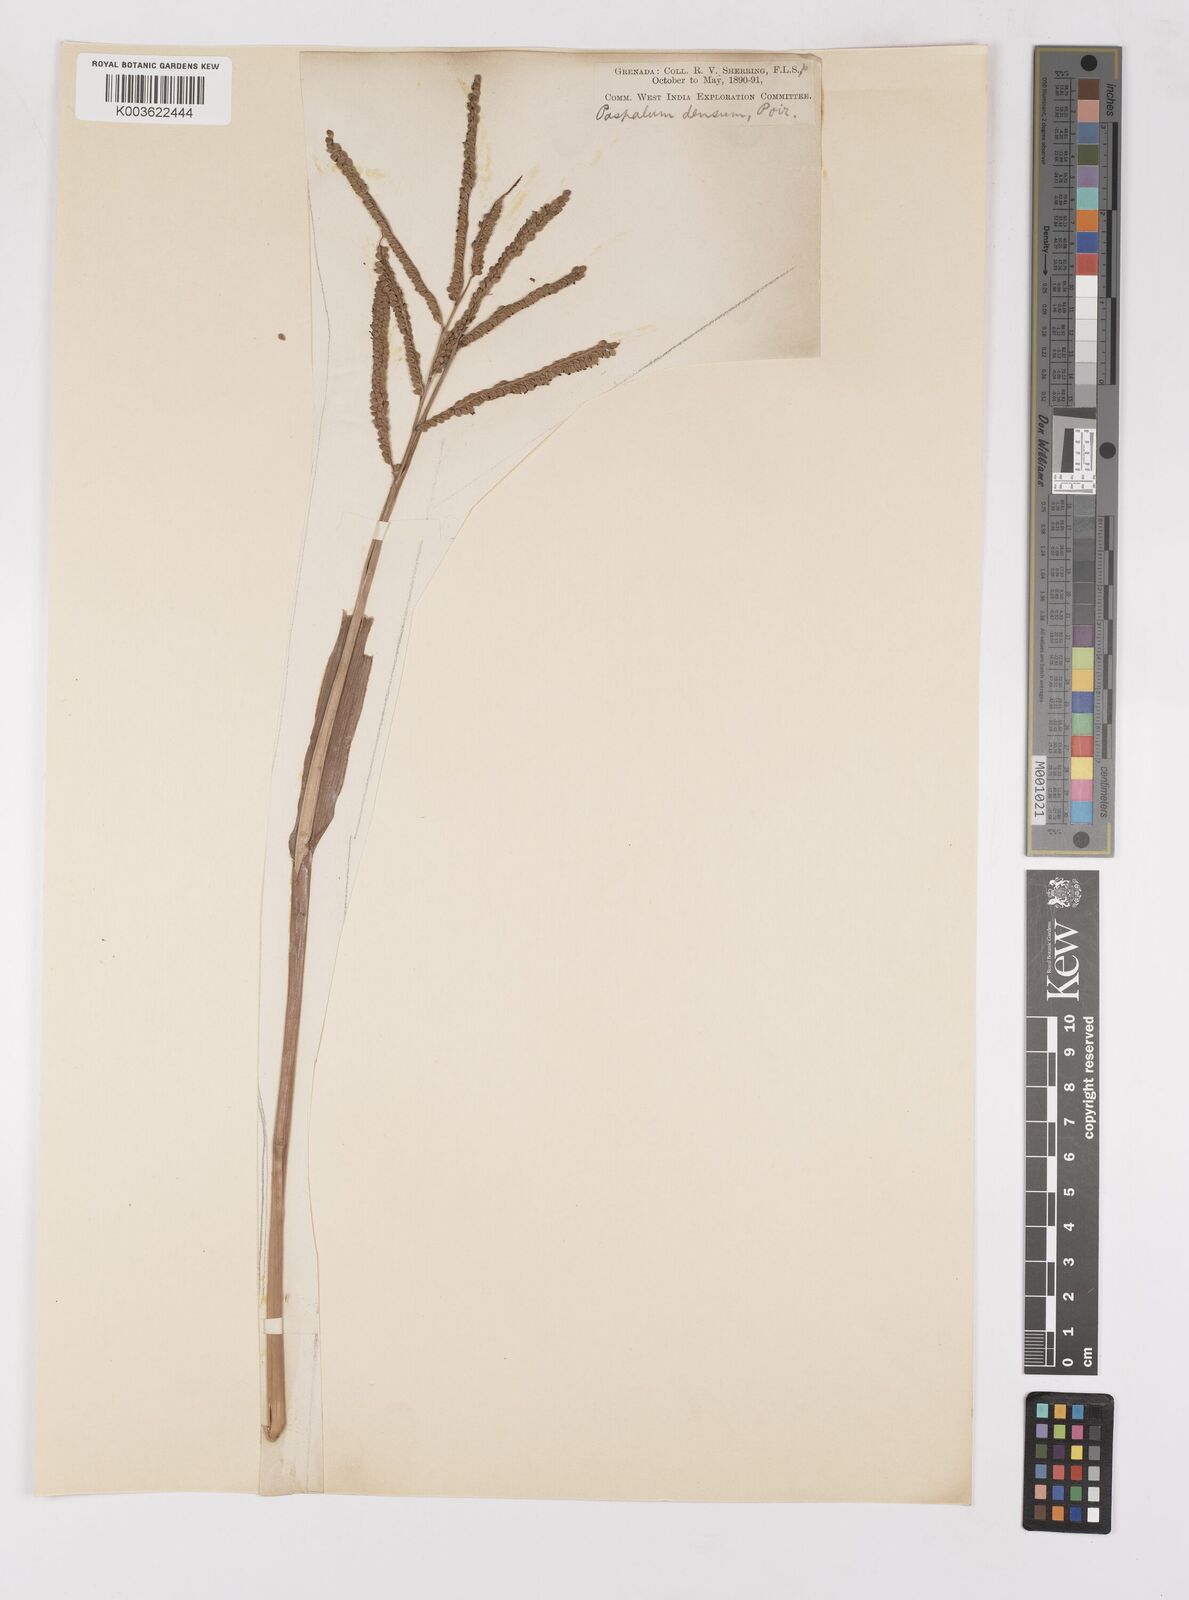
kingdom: Plantae
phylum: Tracheophyta
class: Liliopsida
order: Poales
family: Poaceae
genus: Paspalum
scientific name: Paspalum virgatum
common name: Talquezal
